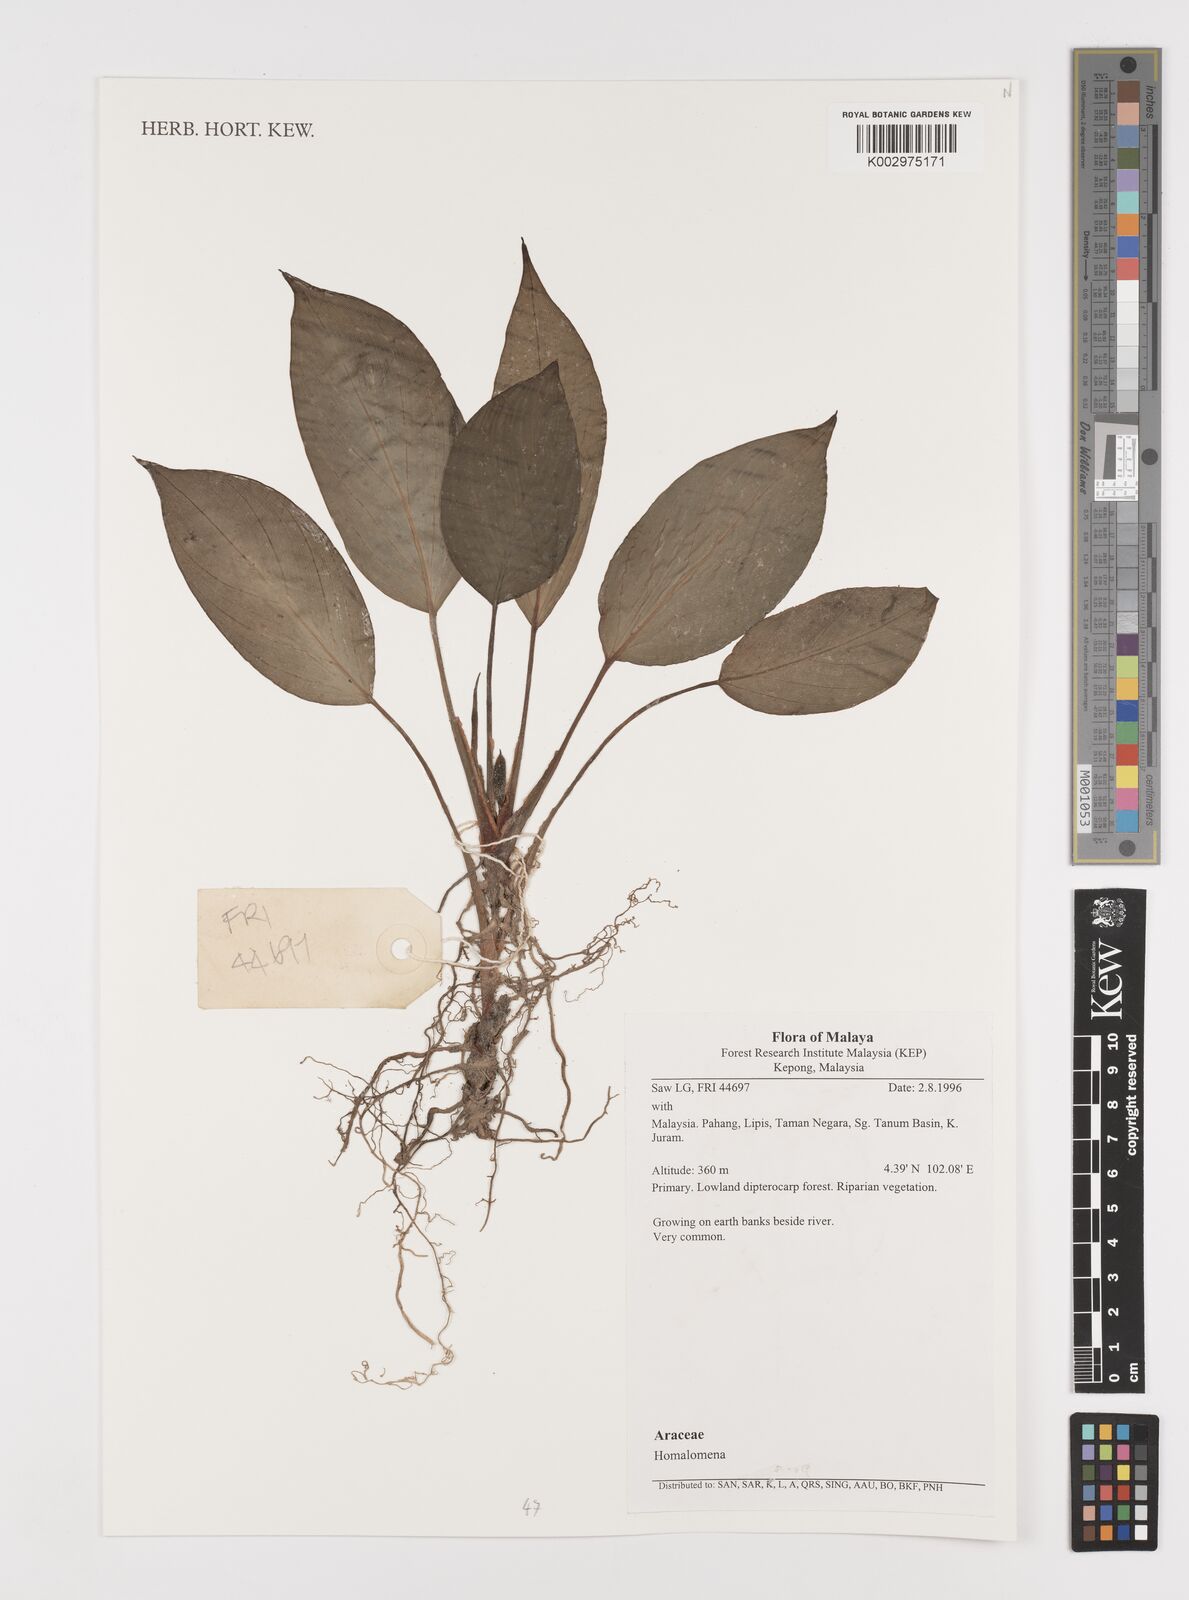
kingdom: Plantae
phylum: Tracheophyta
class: Liliopsida
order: Alismatales
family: Araceae
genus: Homalomena
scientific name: Homalomena
